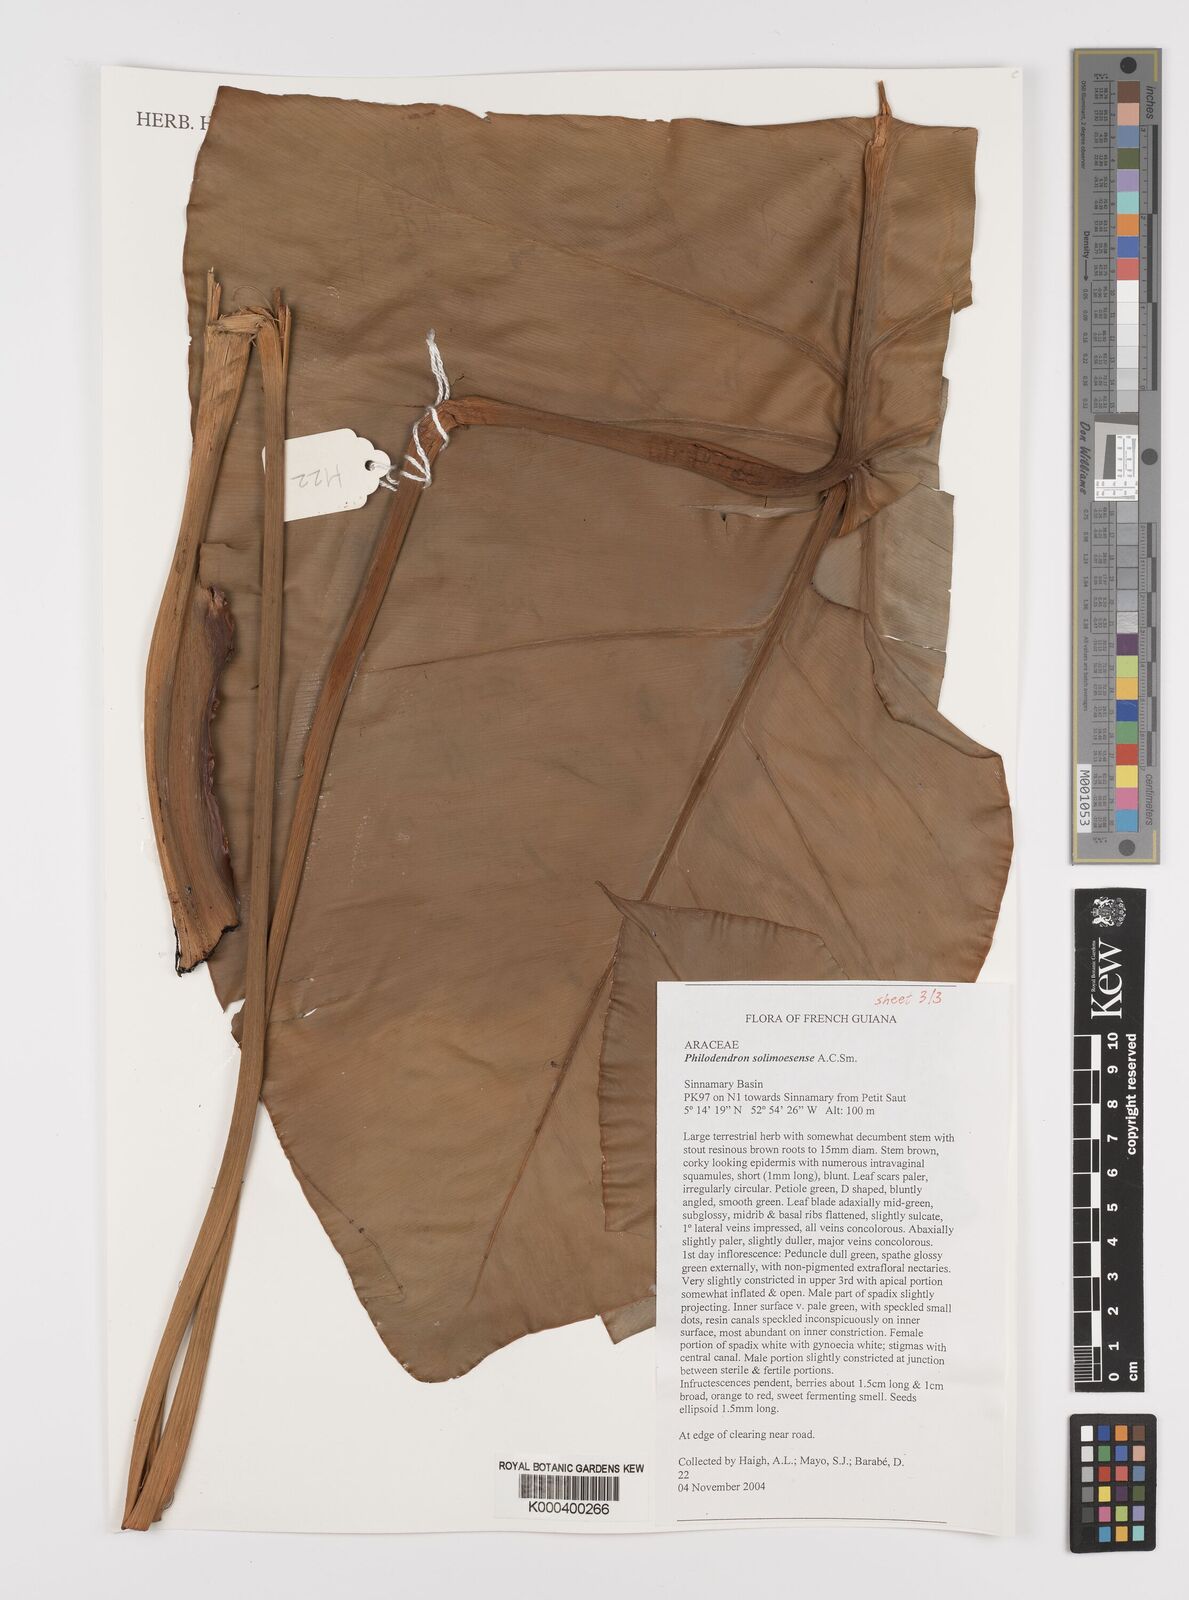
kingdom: Plantae
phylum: Tracheophyta
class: Liliopsida
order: Alismatales
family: Araceae
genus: Thaumatophyllum
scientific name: Thaumatophyllum solimoesense
